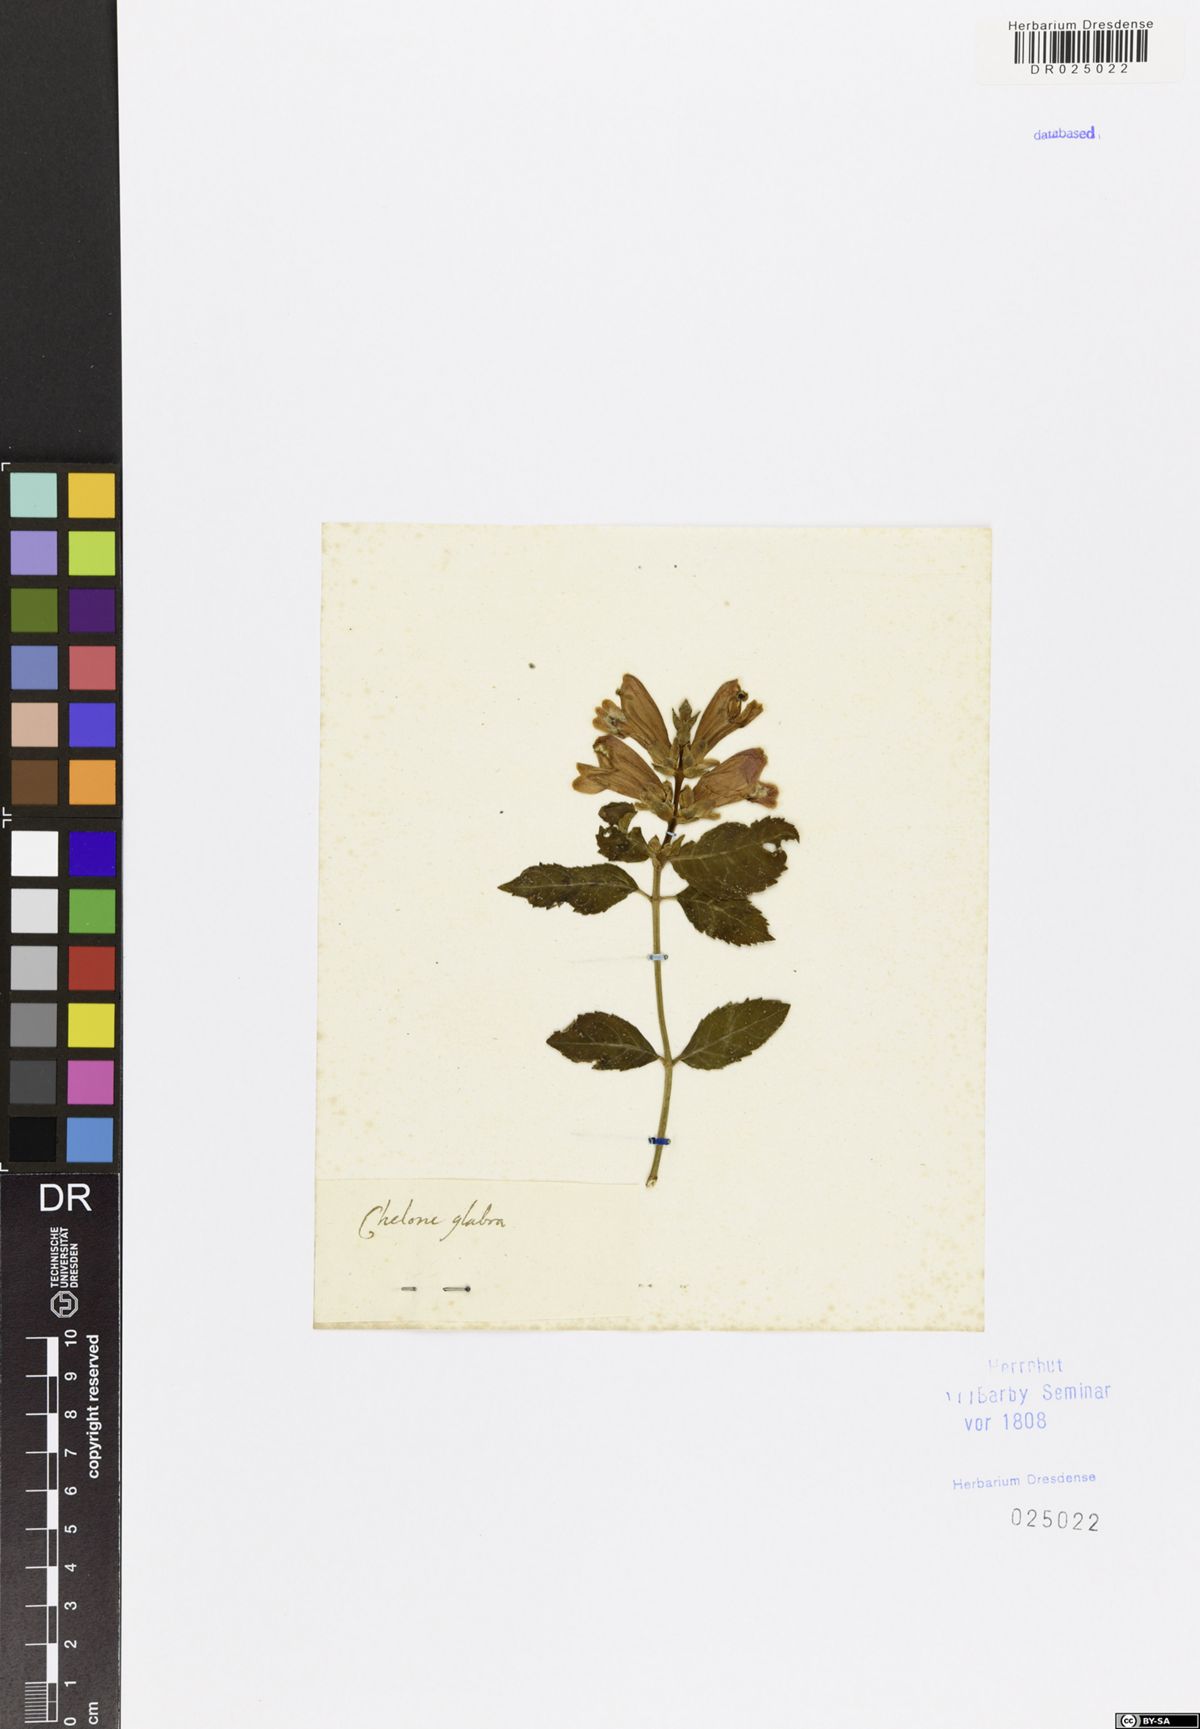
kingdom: Plantae
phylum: Tracheophyta
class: Magnoliopsida
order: Lamiales
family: Plantaginaceae
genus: Chelone
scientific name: Chelone glabra
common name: Snakehead
